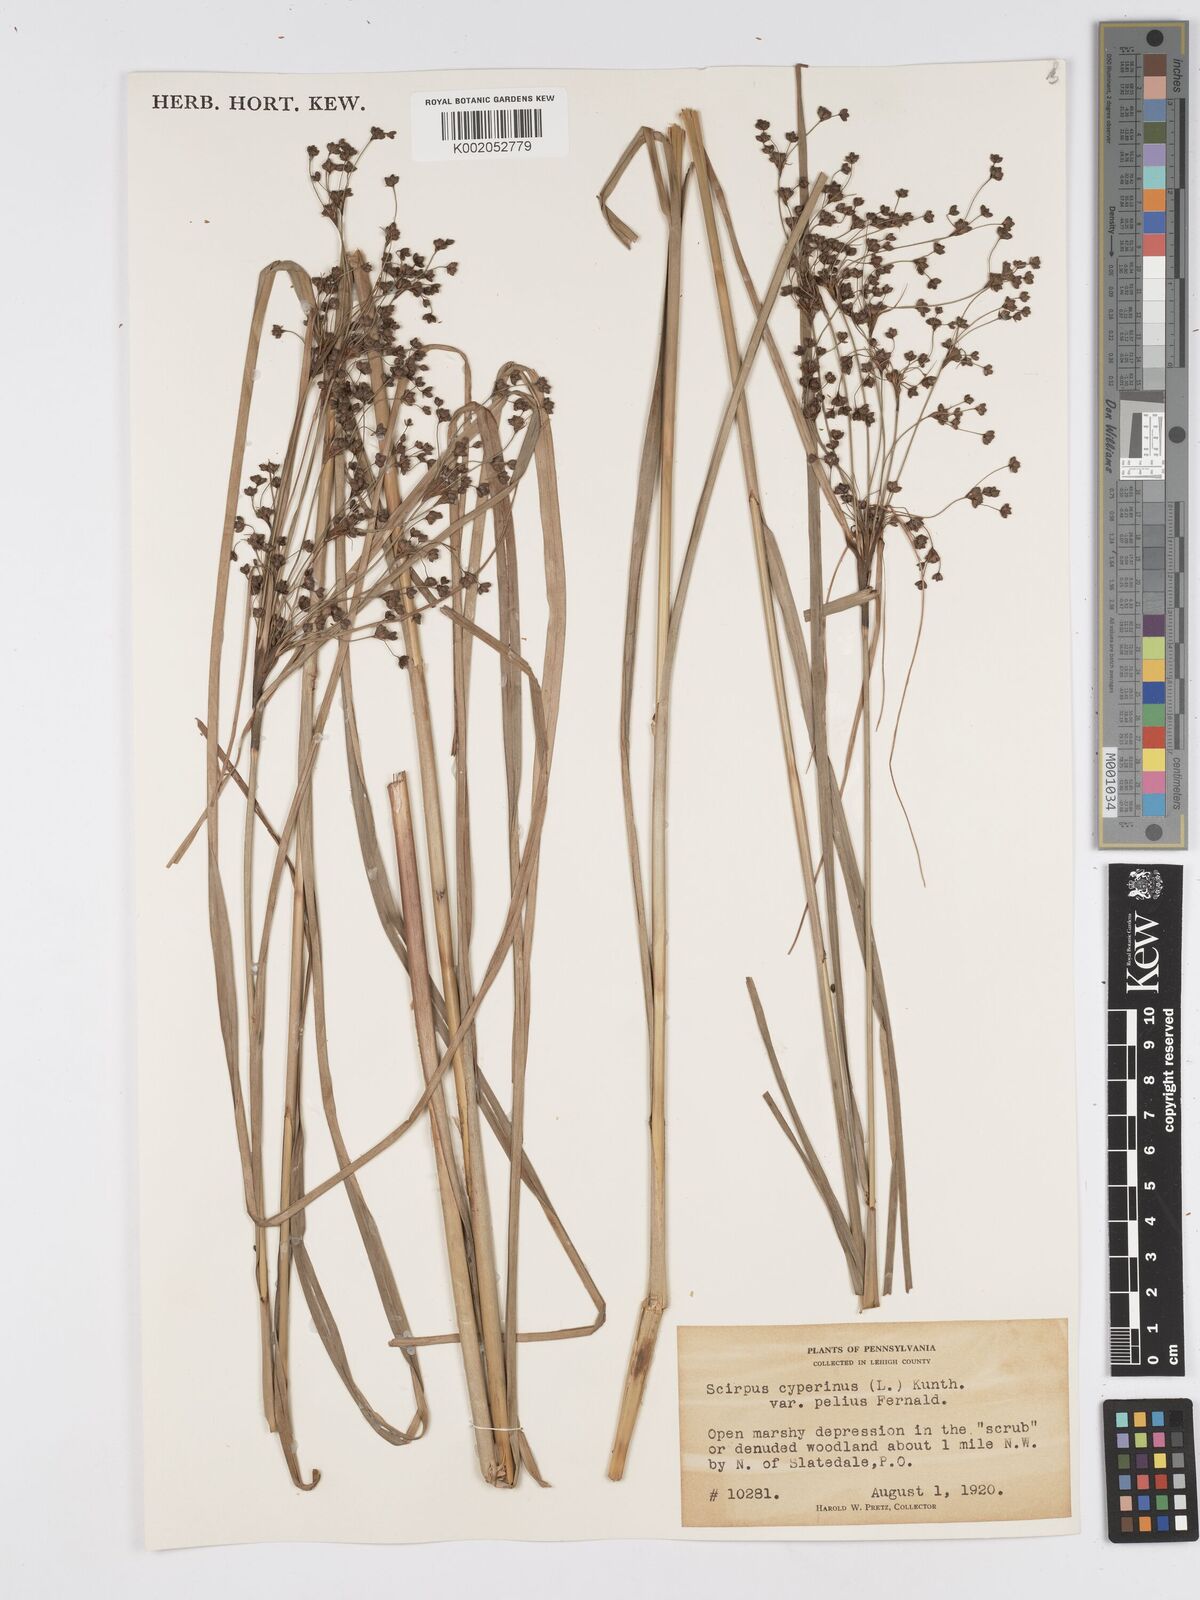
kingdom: Plantae
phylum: Tracheophyta
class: Liliopsida
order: Poales
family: Cyperaceae
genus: Scirpus
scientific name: Scirpus cyperinus
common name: Black-sheathed bulrush
